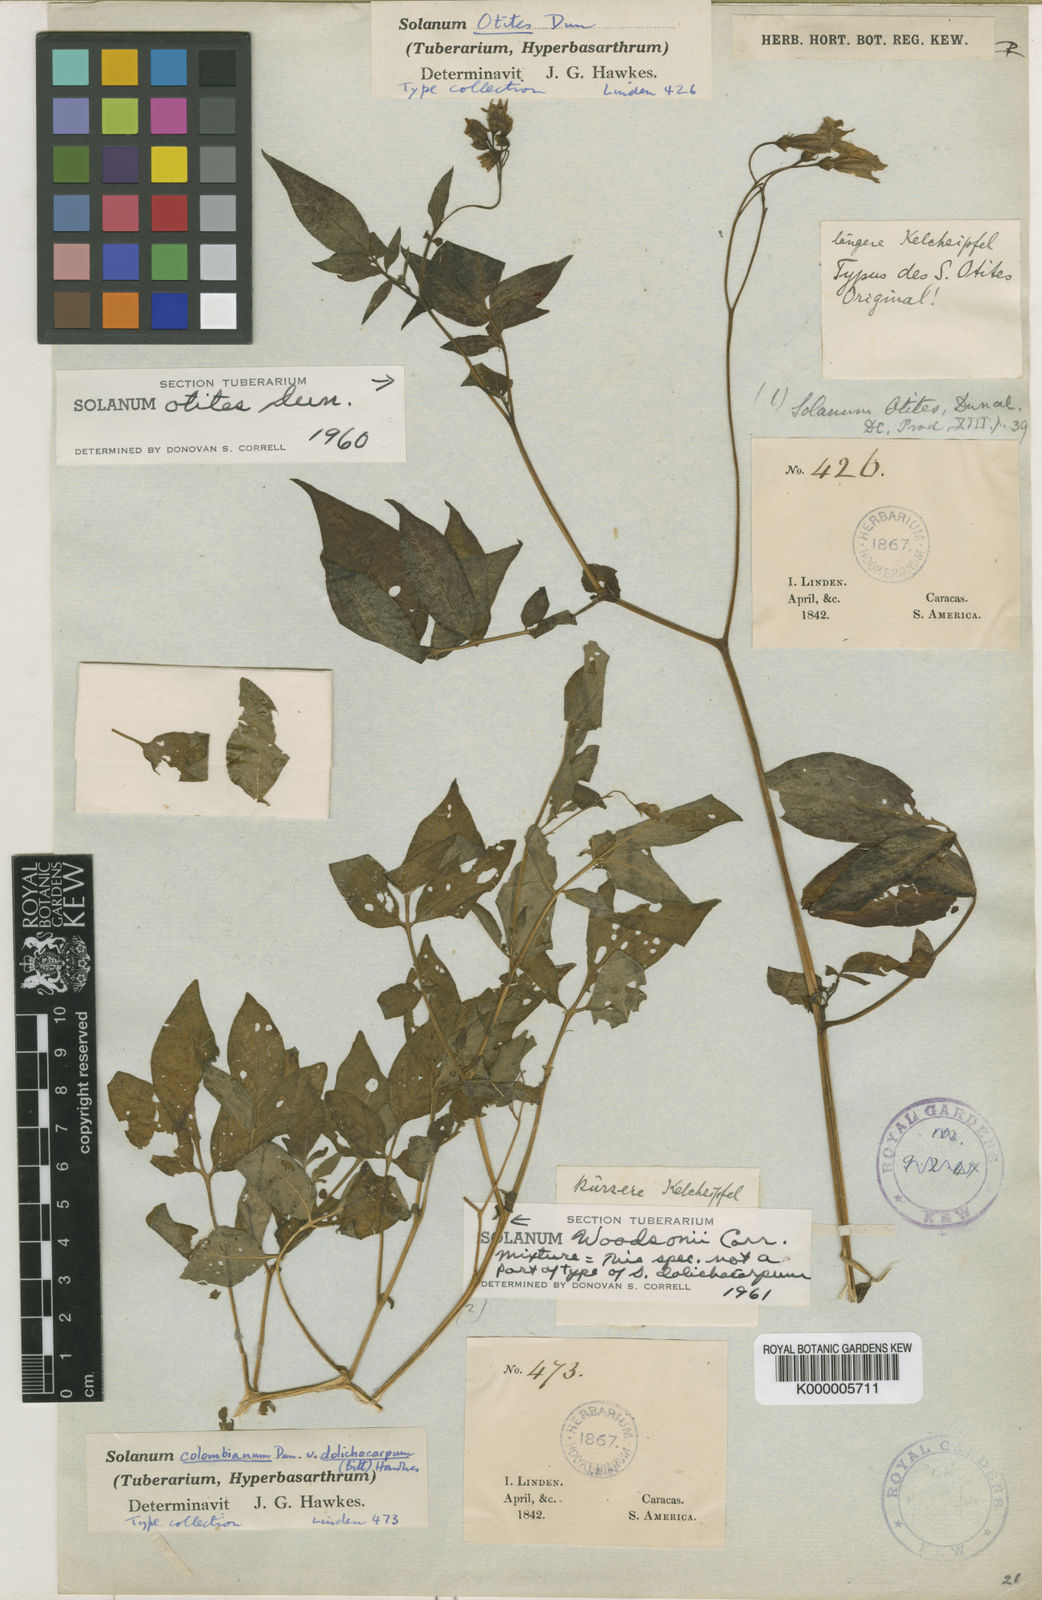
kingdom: Plantae
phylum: Tracheophyta
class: Magnoliopsida
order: Solanales
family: Solanaceae
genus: Solanum
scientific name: Solanum colombianum
